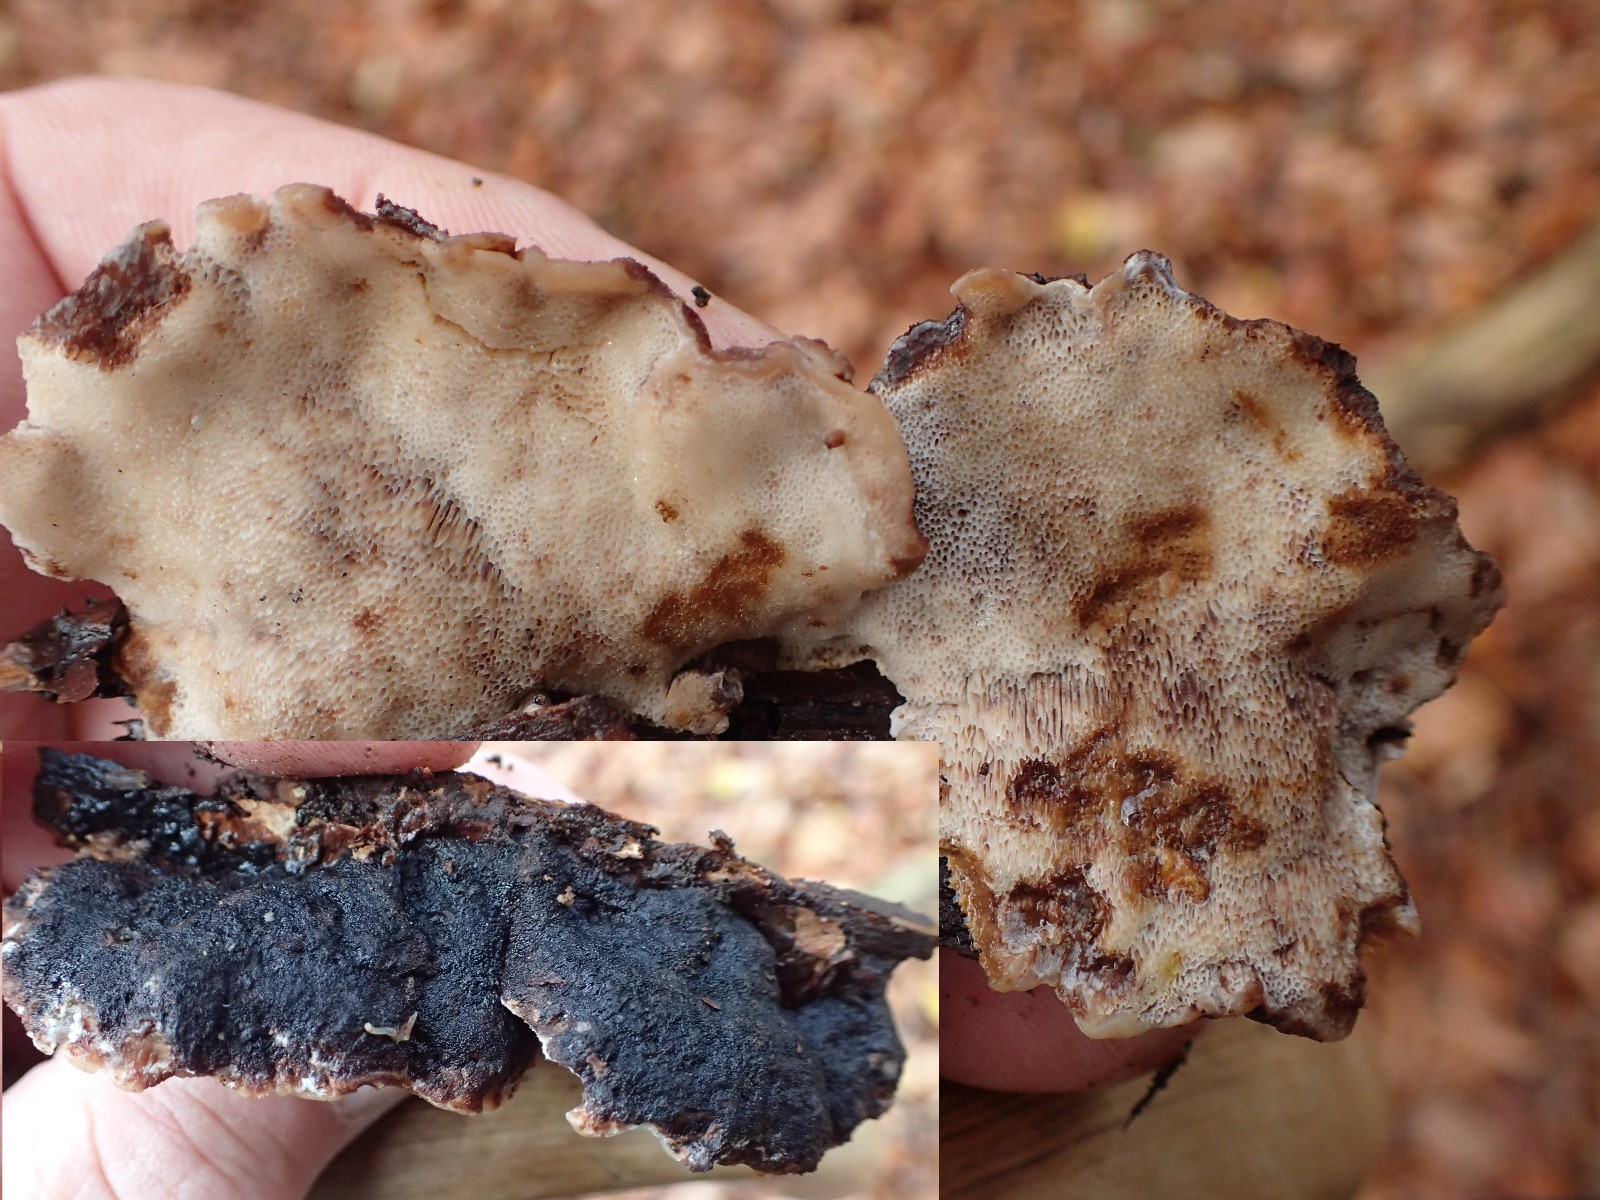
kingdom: Fungi
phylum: Basidiomycota
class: Agaricomycetes
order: Polyporales
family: Ischnodermataceae
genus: Ischnoderma
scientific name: Ischnoderma resinosum
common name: løv-tjæreporesvamp
